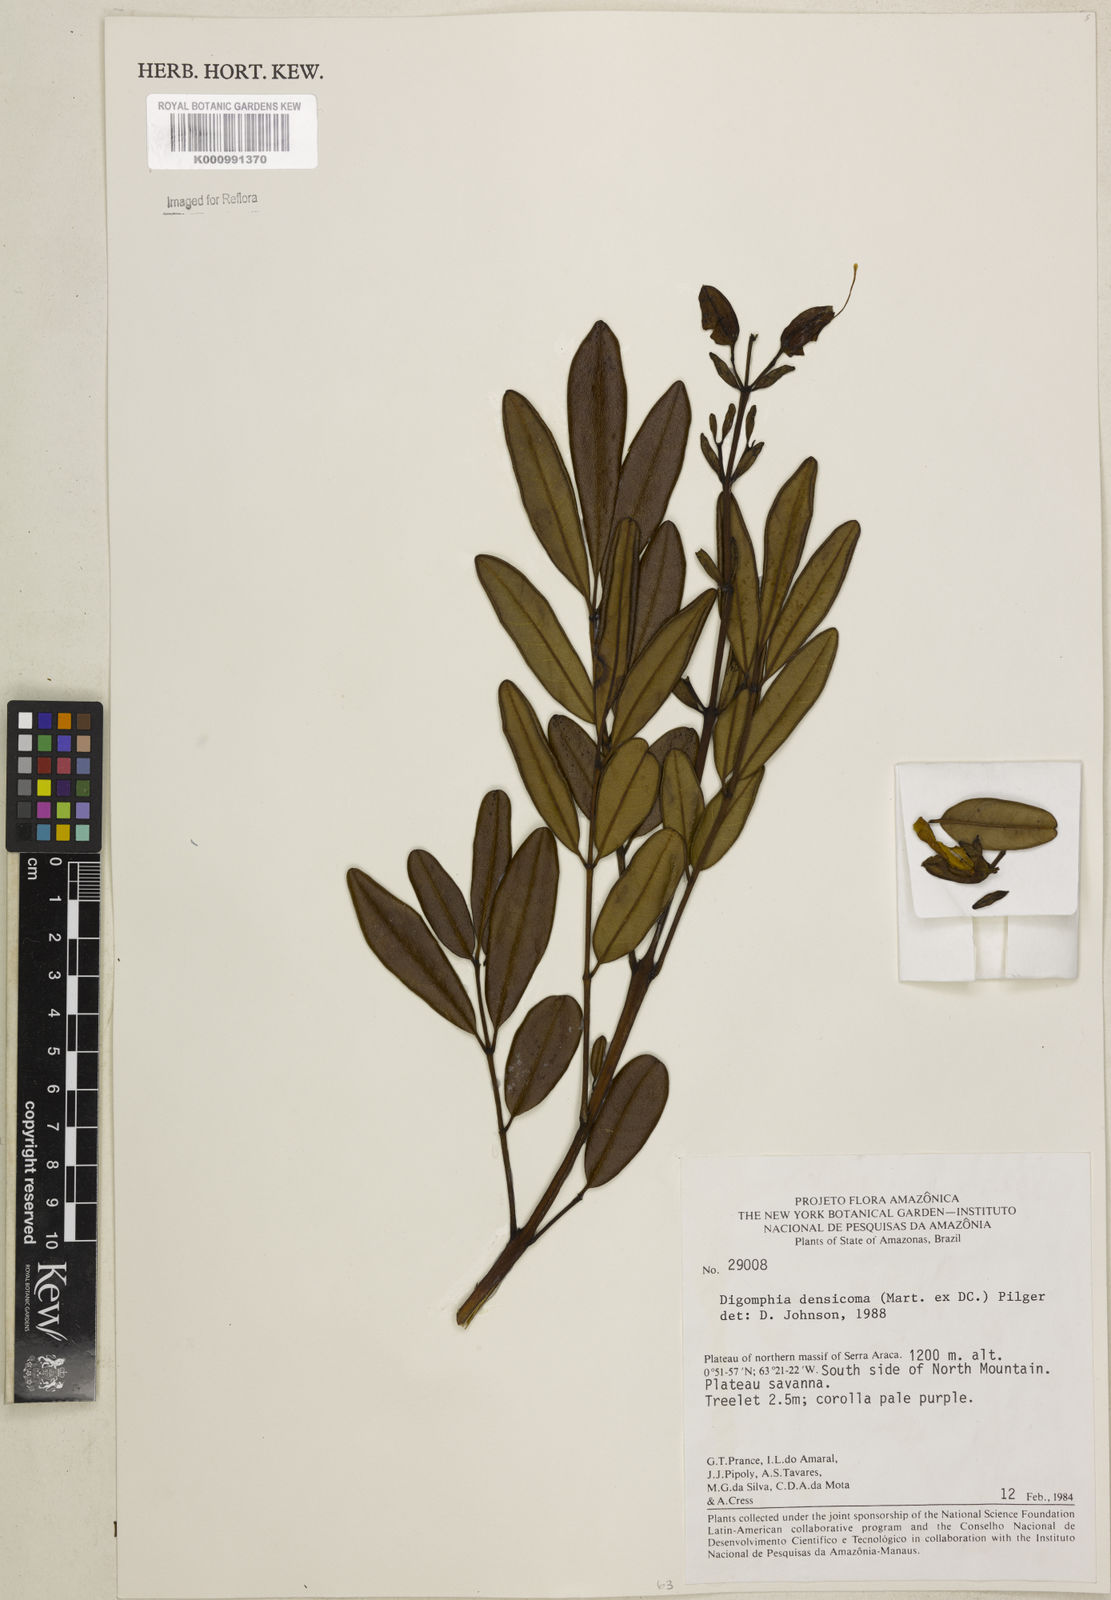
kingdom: Plantae
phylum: Tracheophyta
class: Magnoliopsida
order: Lamiales
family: Bignoniaceae
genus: Digomphia
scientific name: Digomphia densicoma
